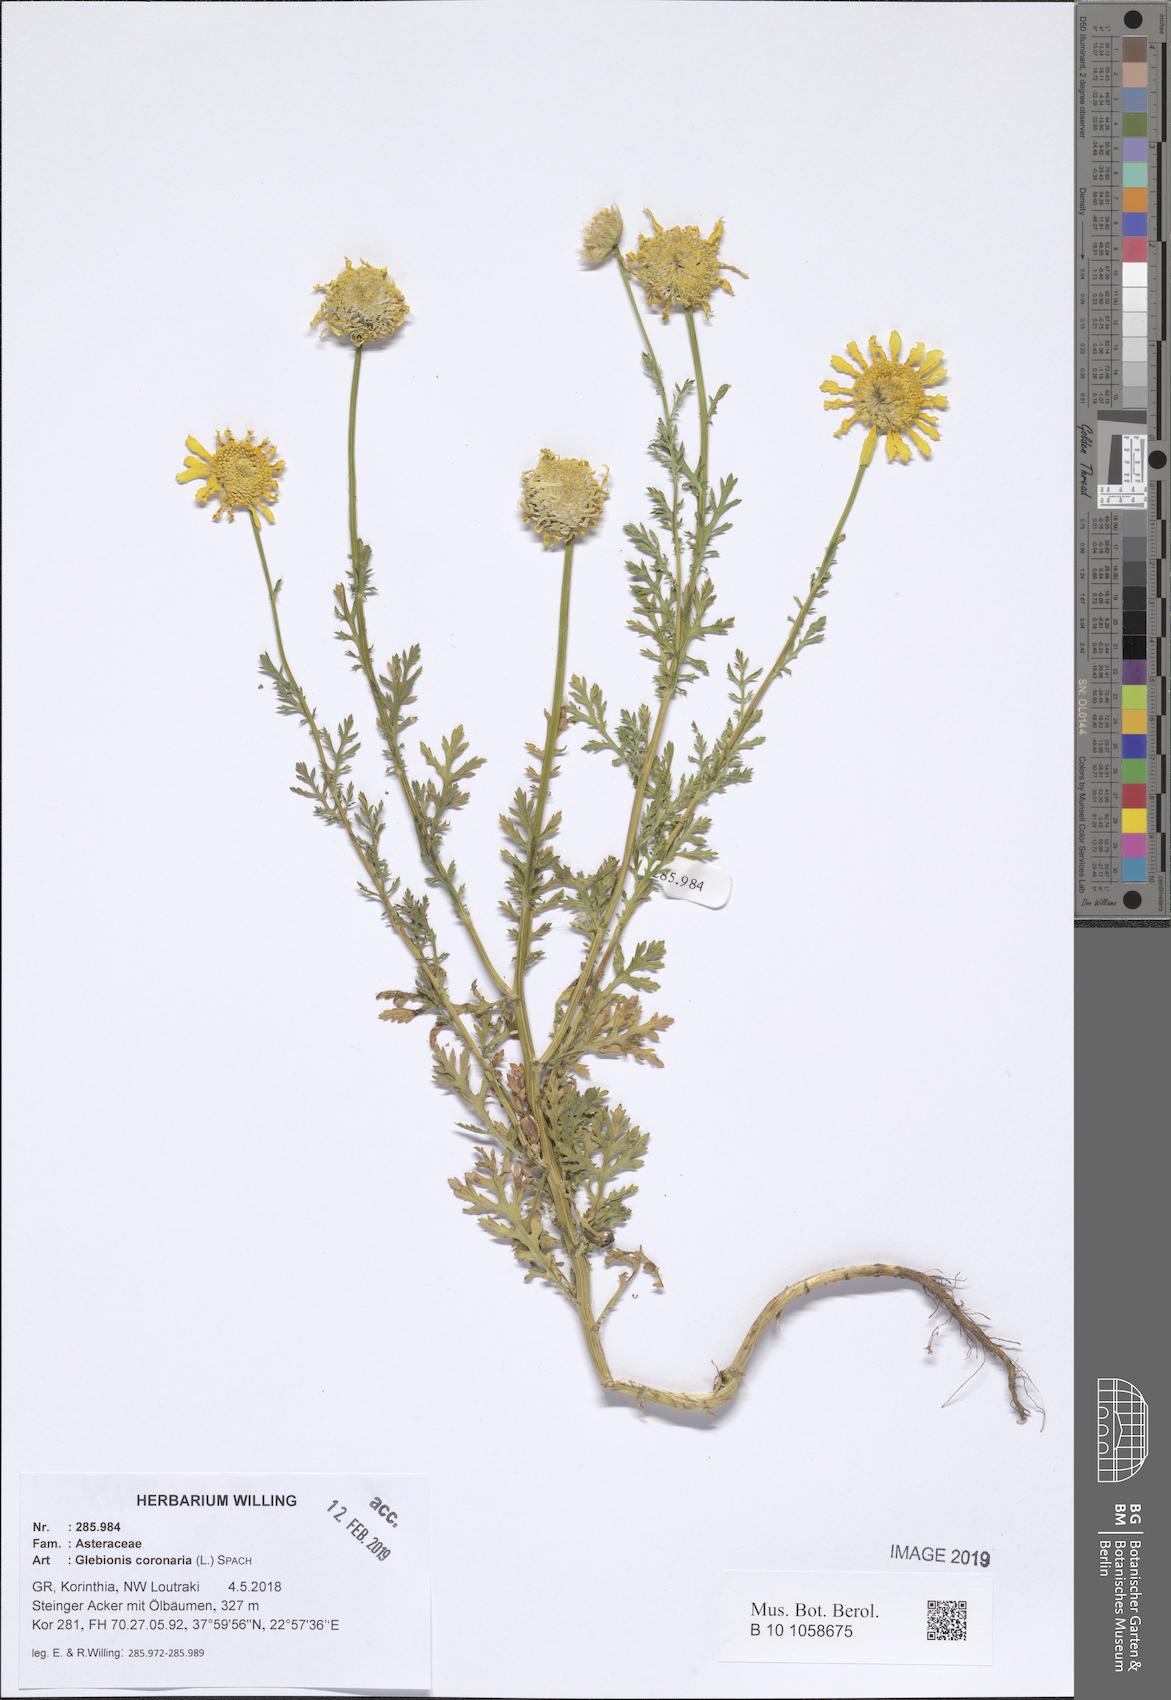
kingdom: Plantae
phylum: Tracheophyta
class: Magnoliopsida
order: Asterales
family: Asteraceae
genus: Glebionis
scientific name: Glebionis coronaria
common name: Crowndaisy
